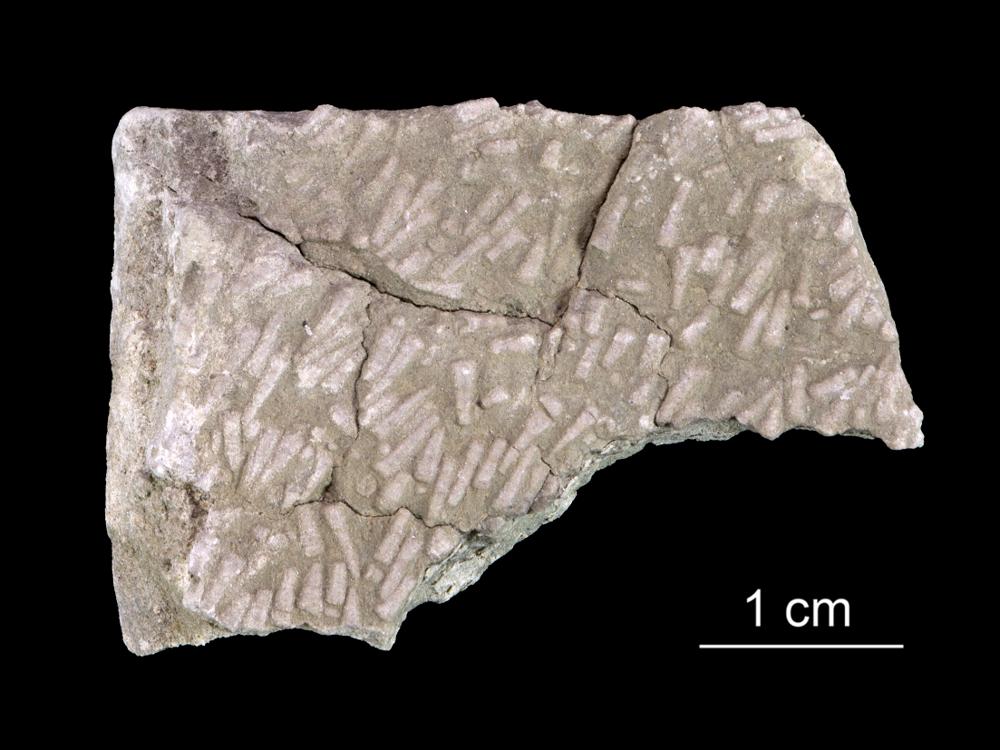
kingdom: Animalia
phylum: Annelida
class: Polychaeta
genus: Volborthella
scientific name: Volborthella tenuis
